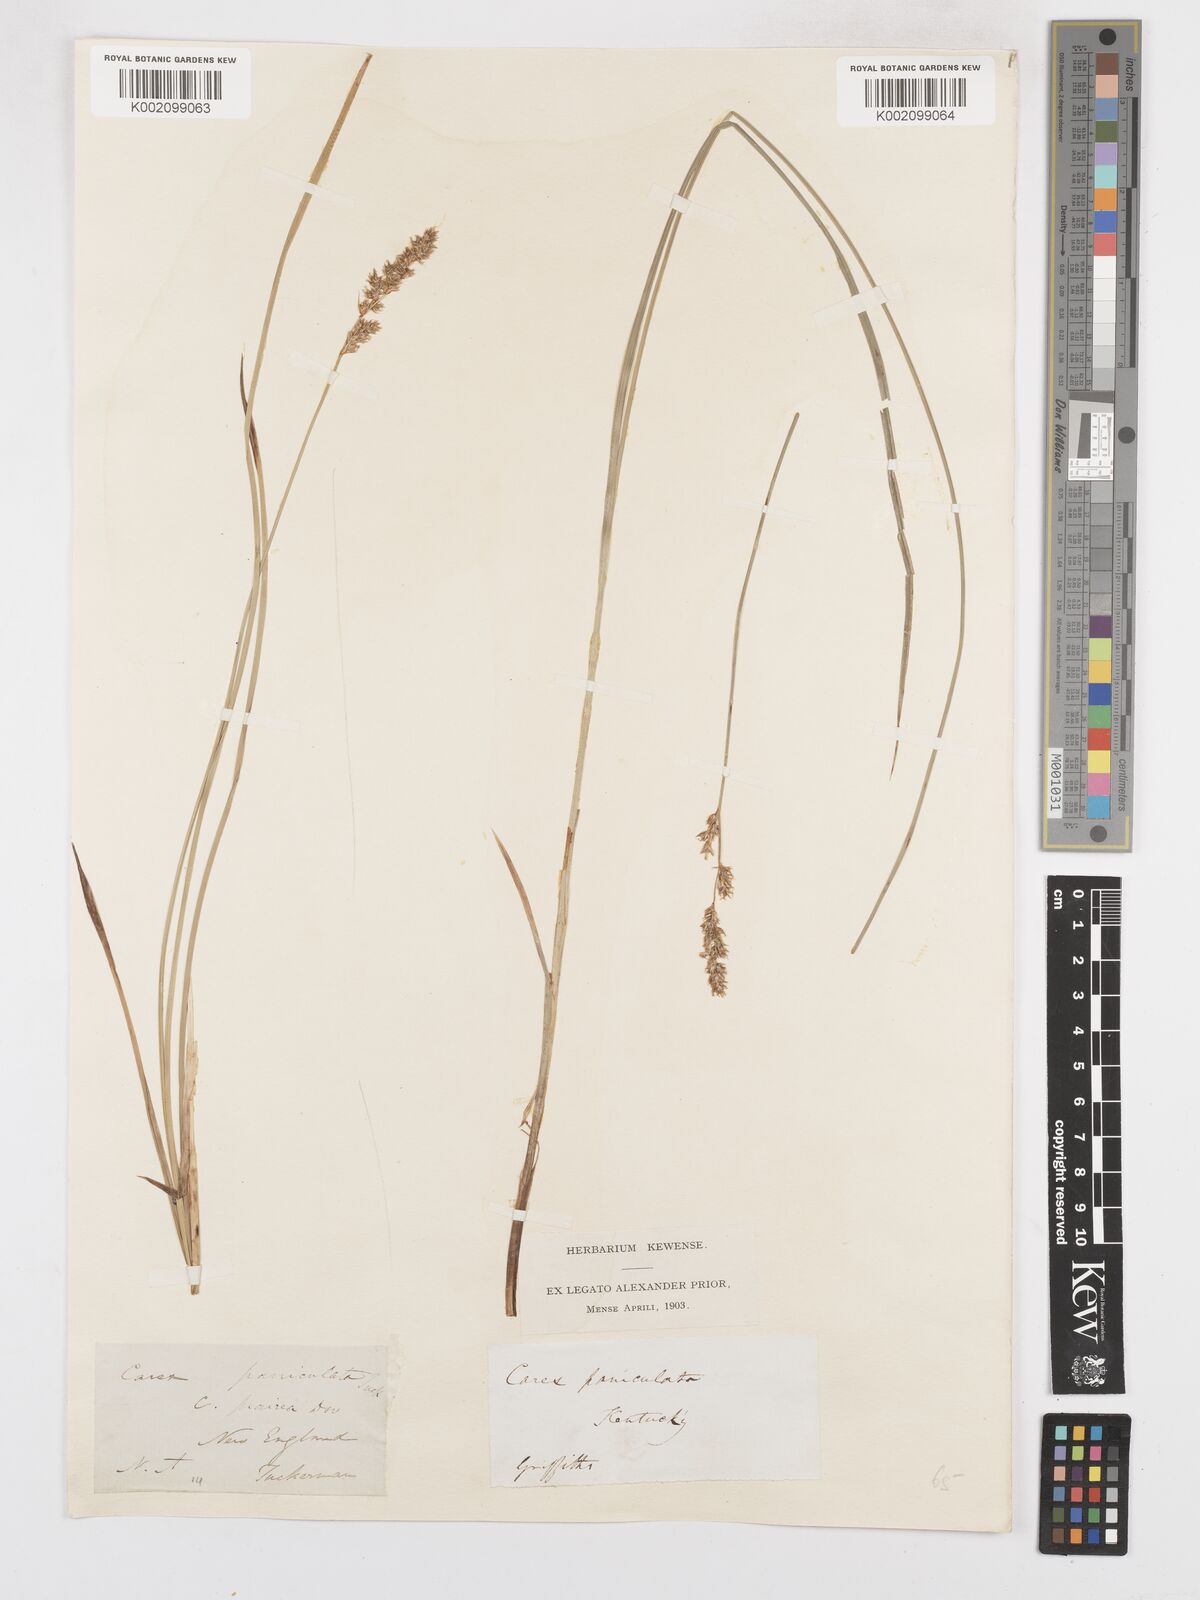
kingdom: Plantae
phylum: Tracheophyta
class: Liliopsida
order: Poales
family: Cyperaceae
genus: Carex
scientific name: Carex diandra
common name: Lesser tussock-sedge
